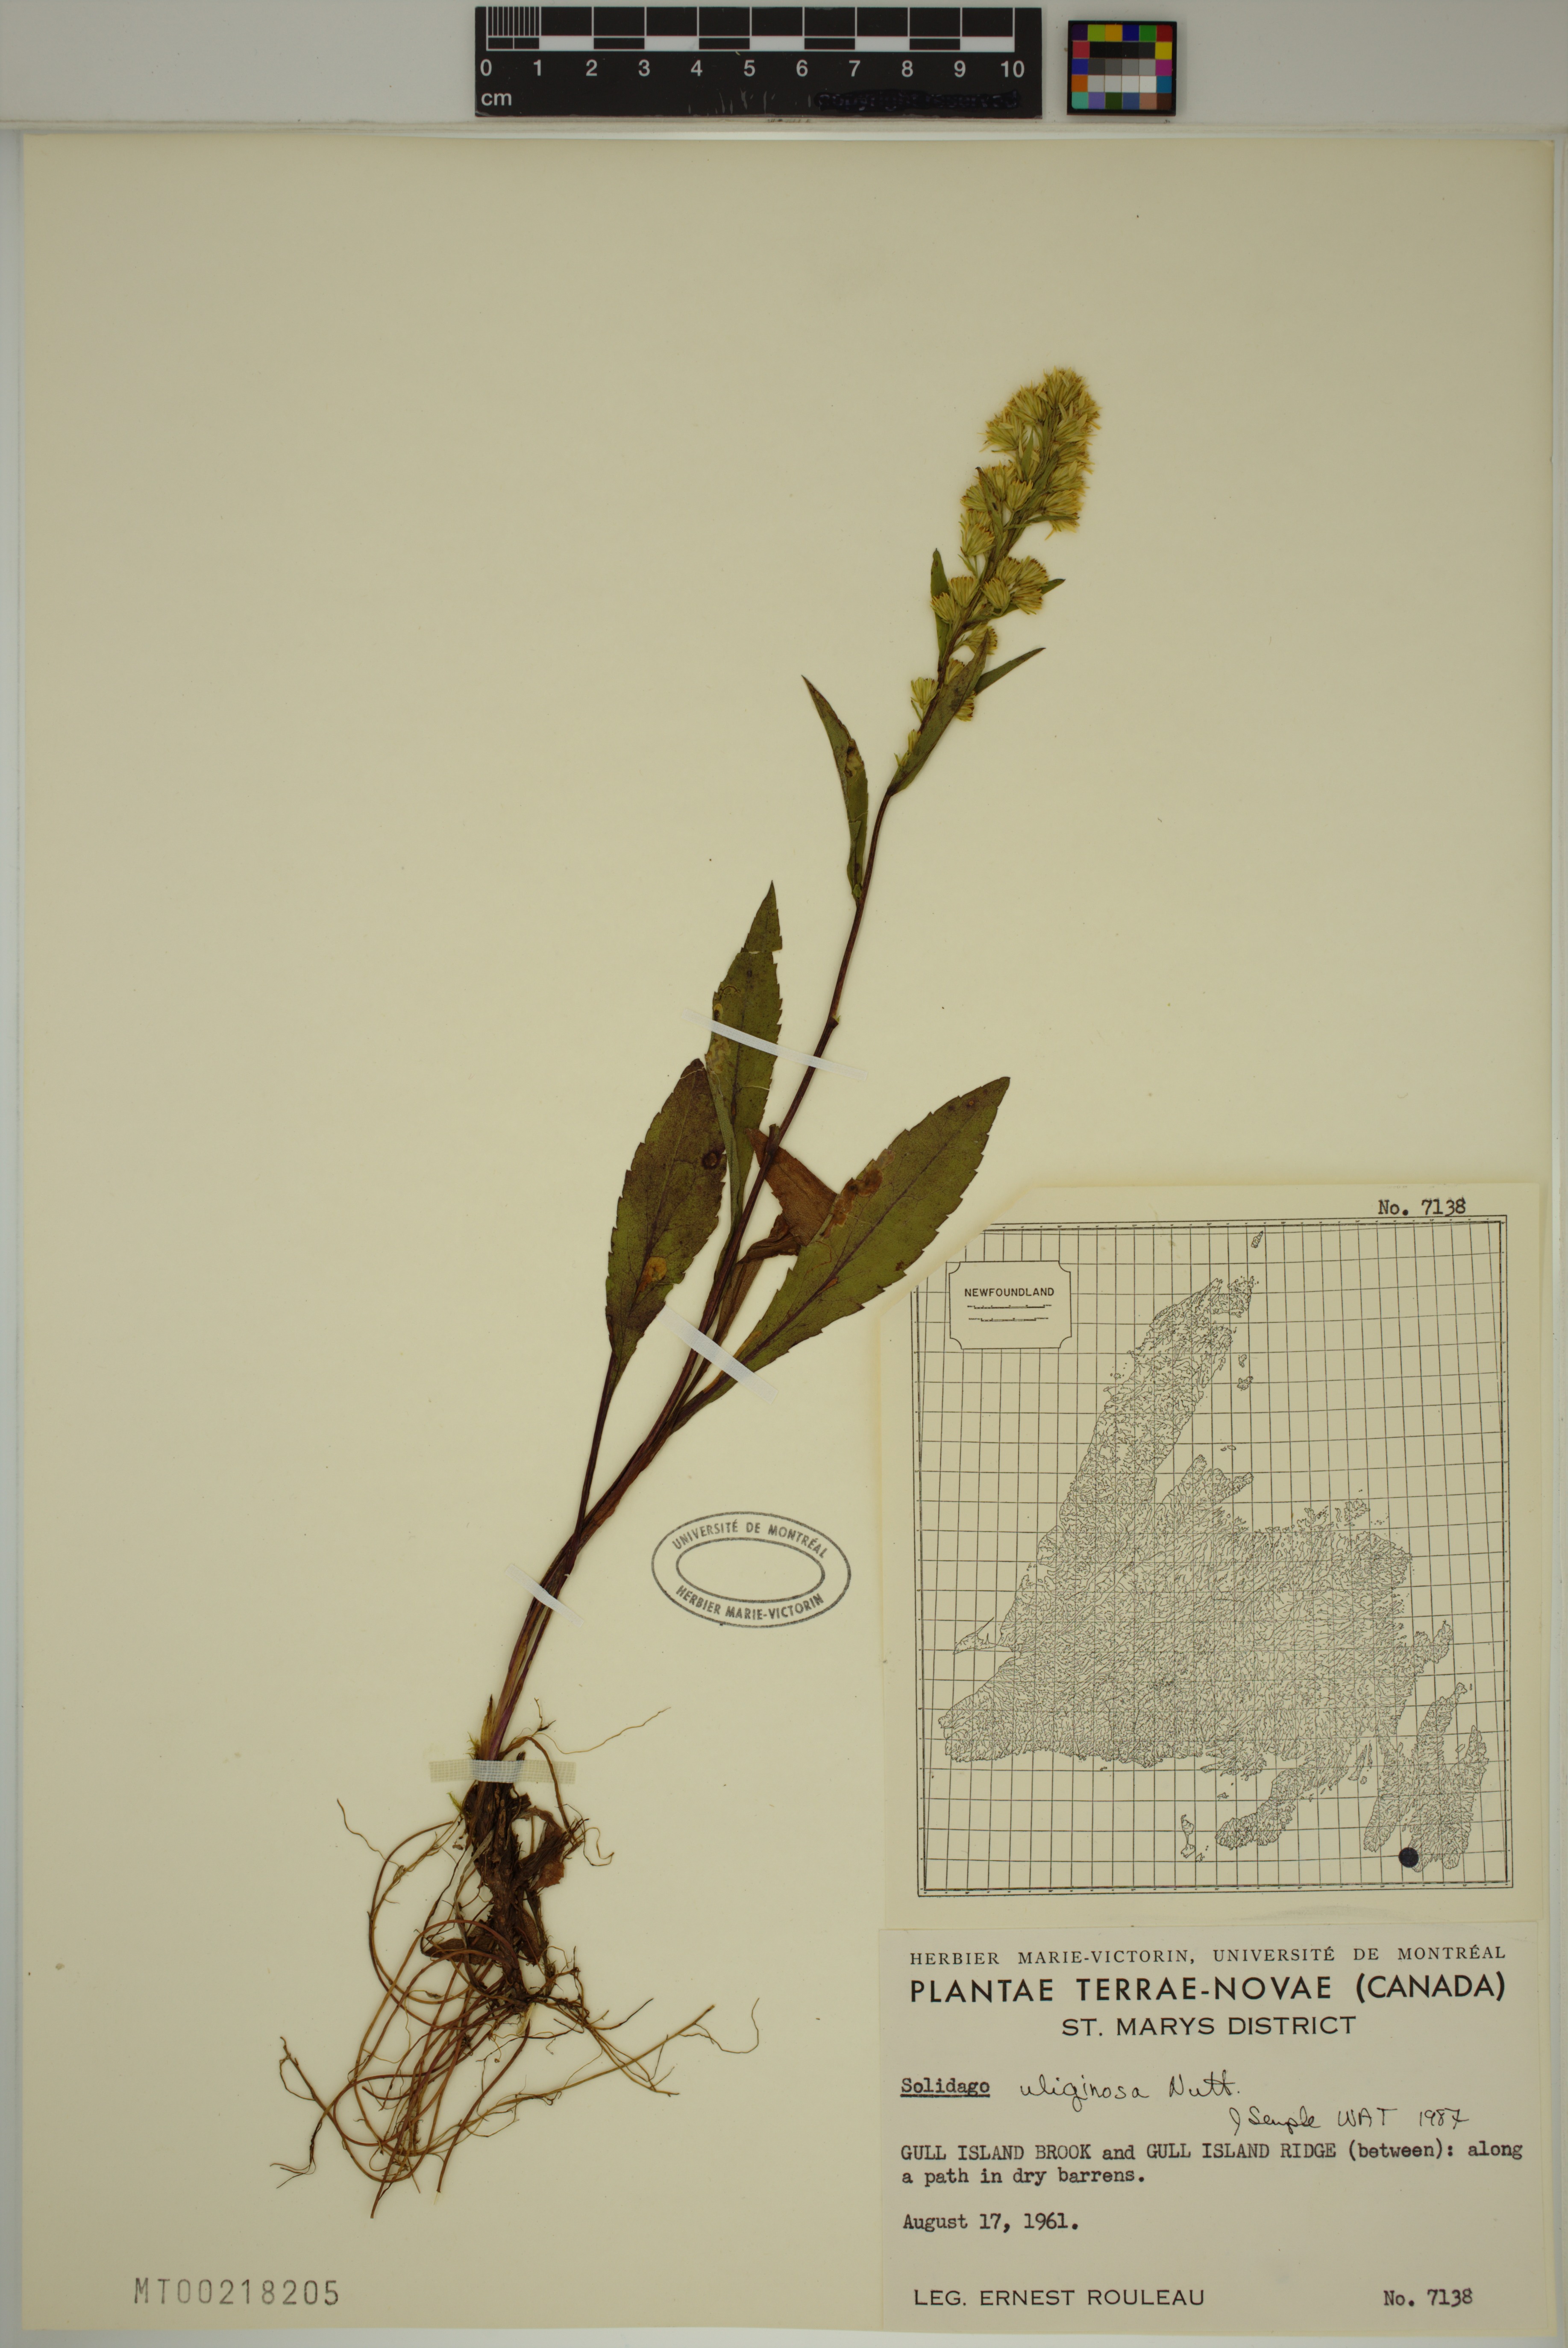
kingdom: Plantae
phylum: Tracheophyta
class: Magnoliopsida
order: Asterales
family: Asteraceae
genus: Solidago
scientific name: Solidago uliginosa
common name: Bog goldenrod
